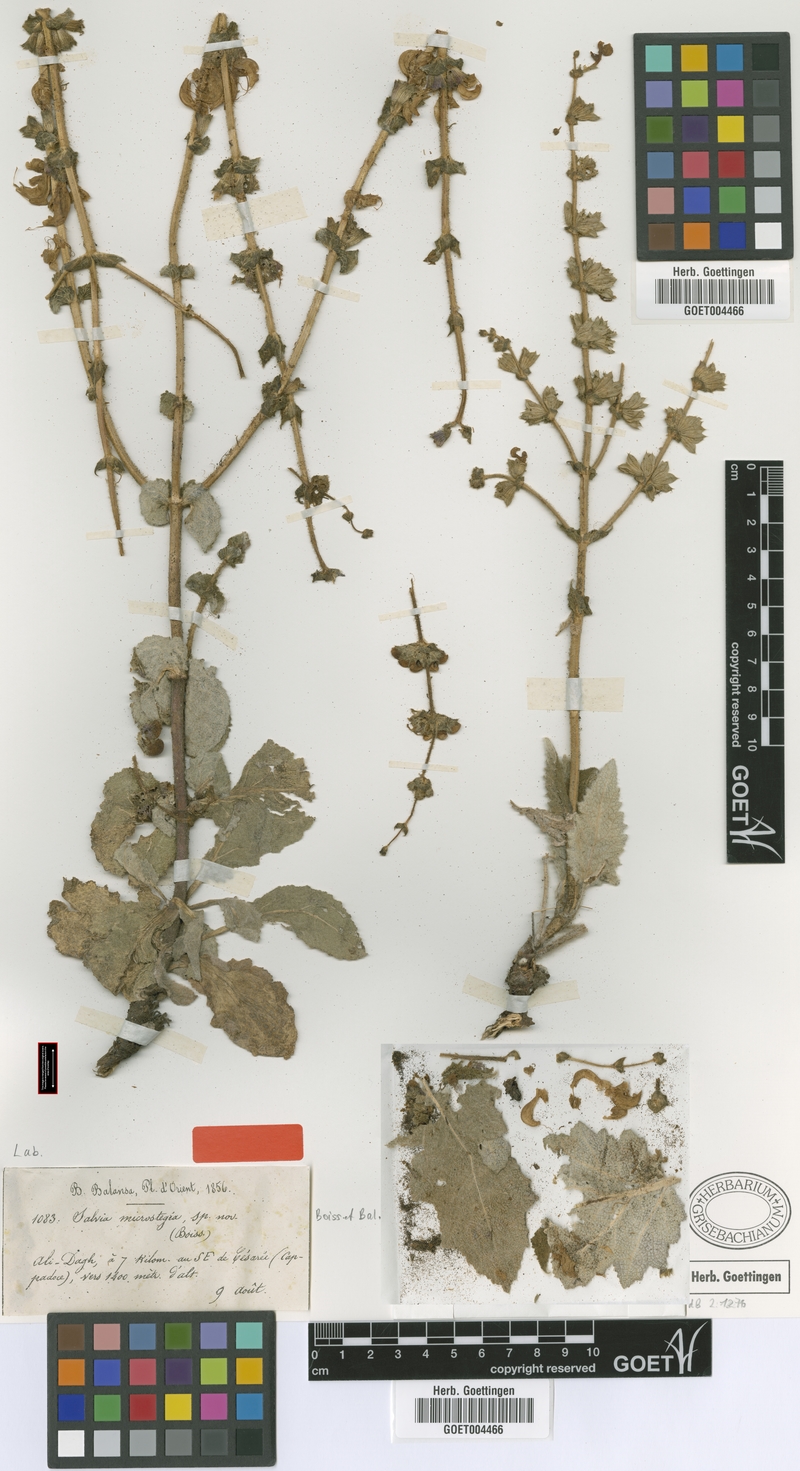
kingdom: Plantae
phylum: Tracheophyta
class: Magnoliopsida
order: Lamiales
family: Lamiaceae
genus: Salvia
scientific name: Salvia microstegia
